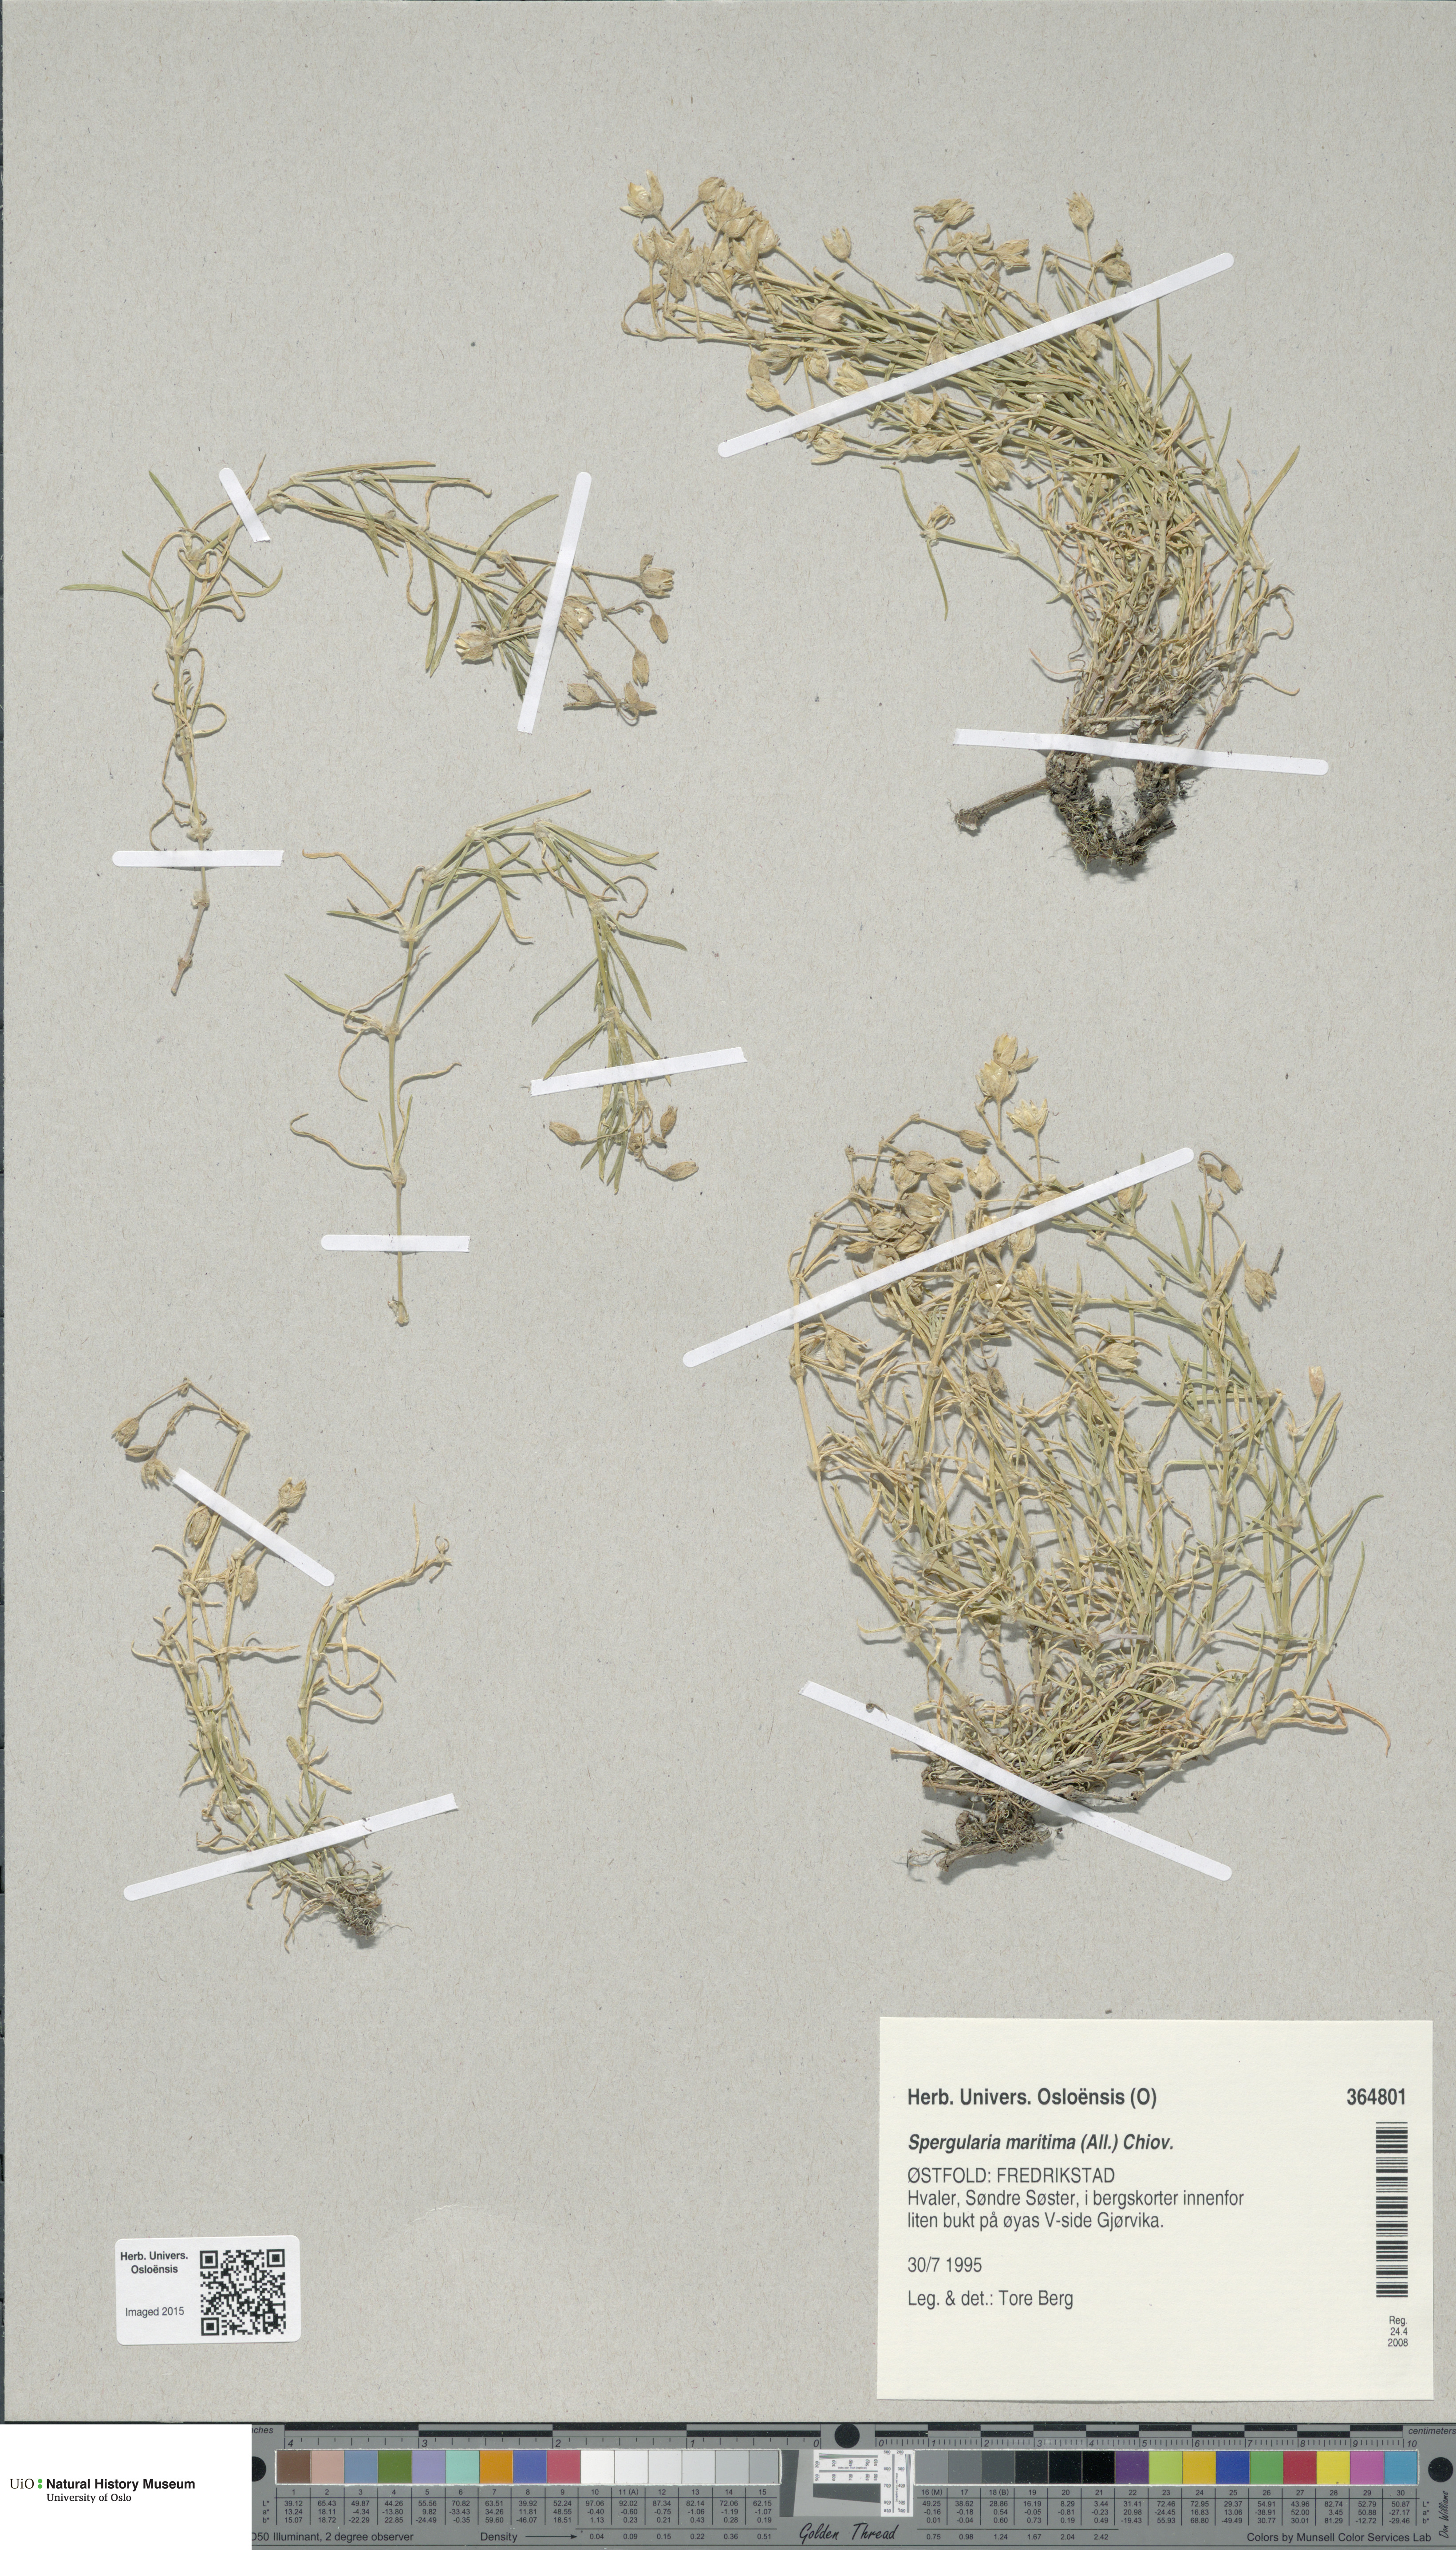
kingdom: Plantae
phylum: Tracheophyta
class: Magnoliopsida
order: Caryophyllales
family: Caryophyllaceae
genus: Spergularia
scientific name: Spergularia media
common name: Greater sea-spurrey
